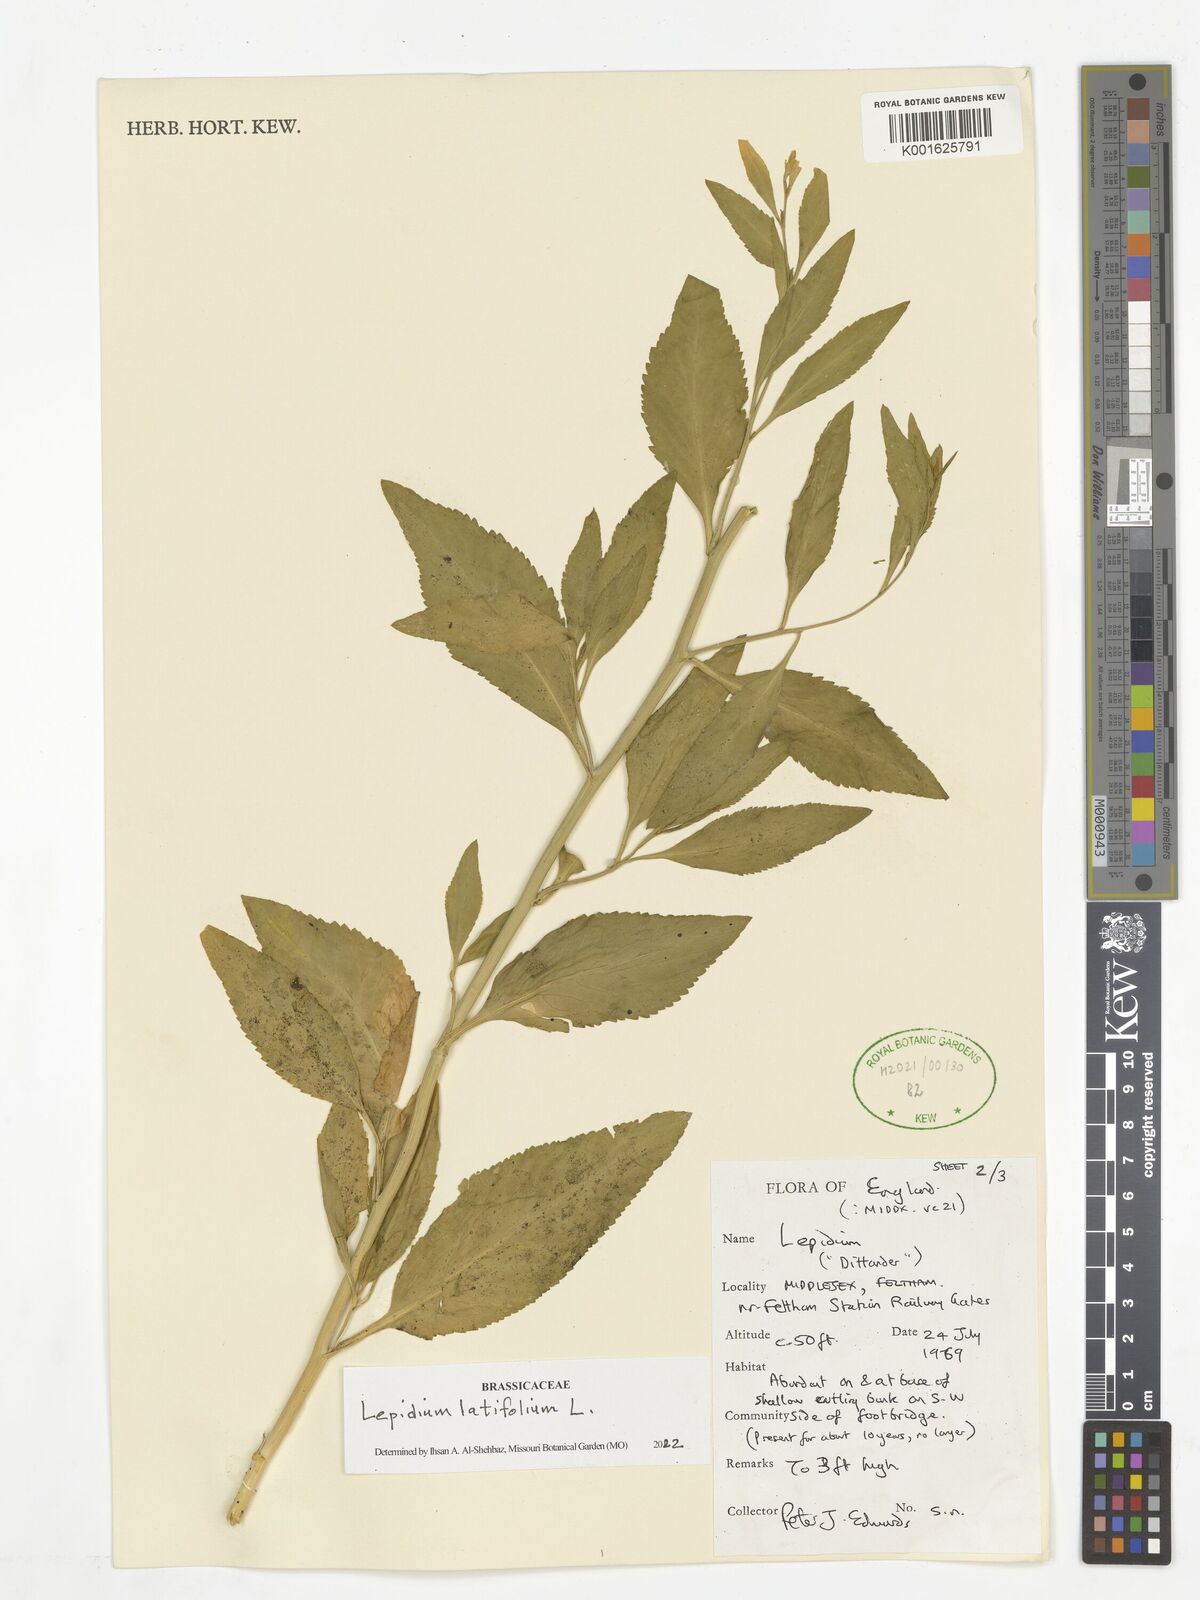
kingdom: Plantae
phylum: Tracheophyta
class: Magnoliopsida
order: Brassicales
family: Brassicaceae
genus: Lepidium
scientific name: Lepidium latifolium
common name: Dittander
